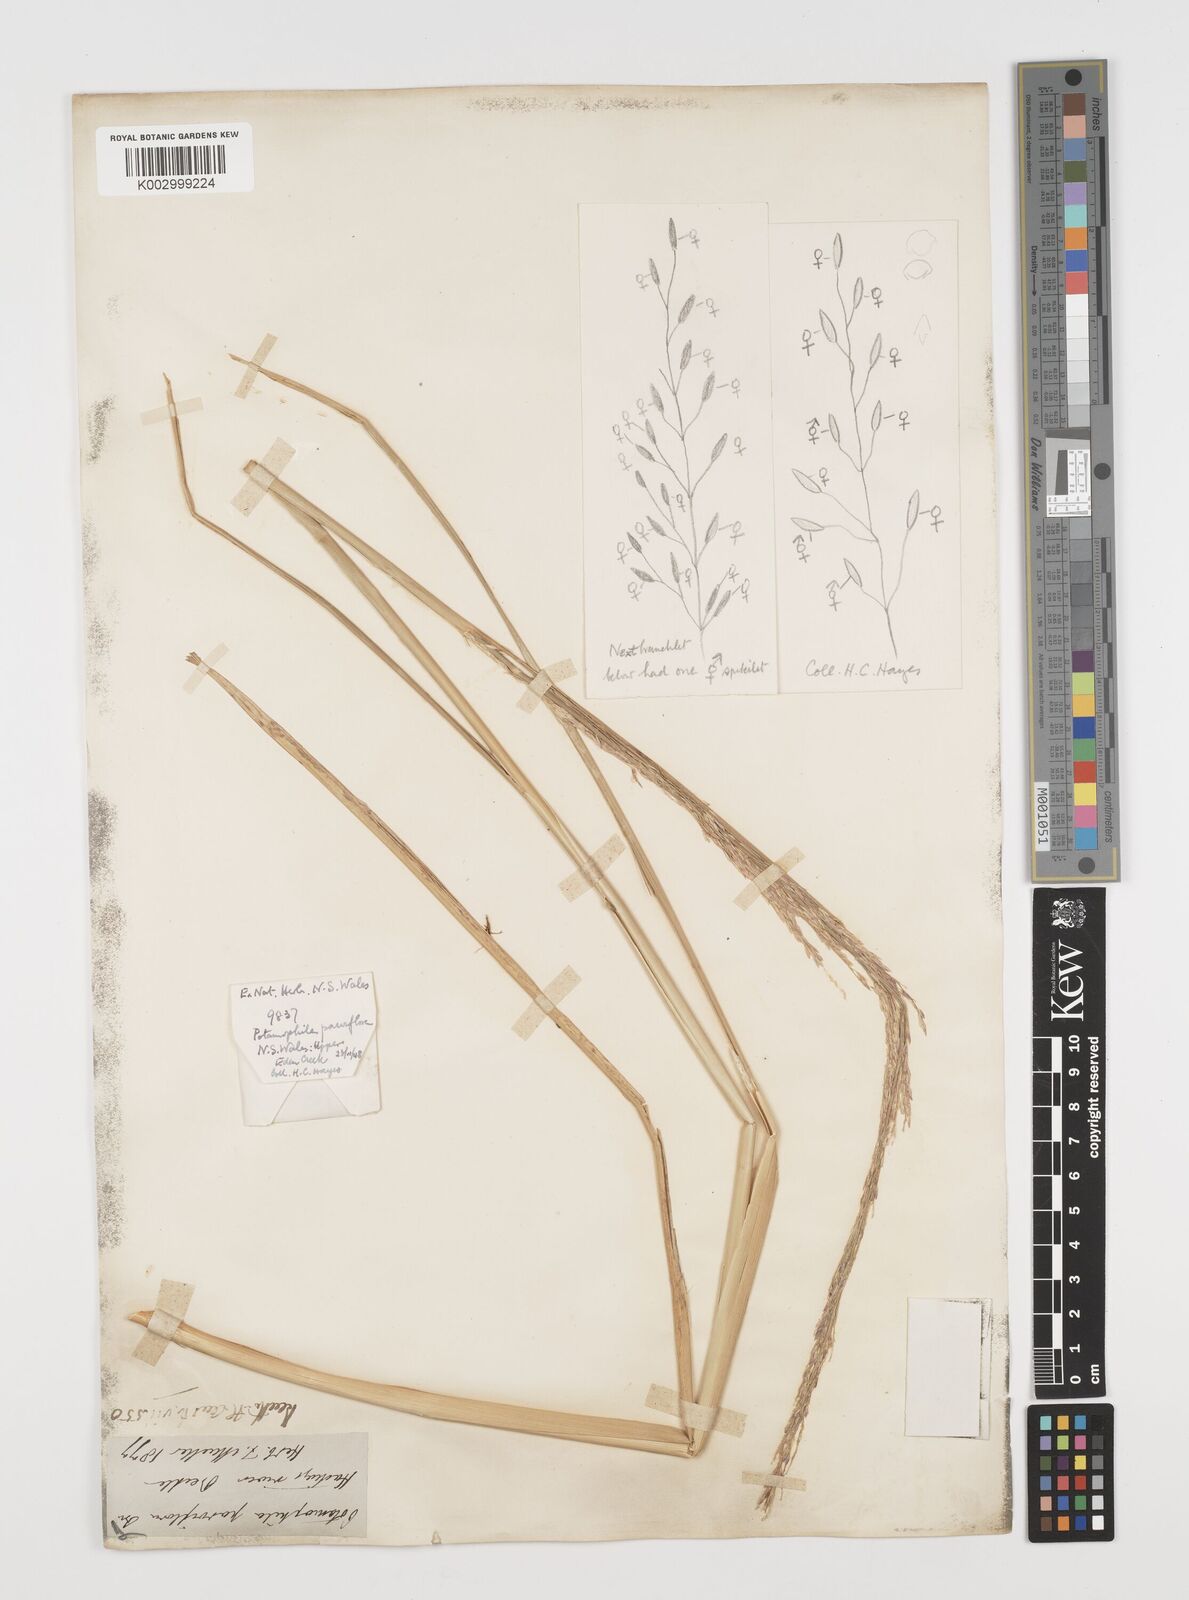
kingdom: Plantae
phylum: Tracheophyta
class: Magnoliopsida
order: Caryophyllales
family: Microteaceae
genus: Microtea
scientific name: Microtea maypurensis
